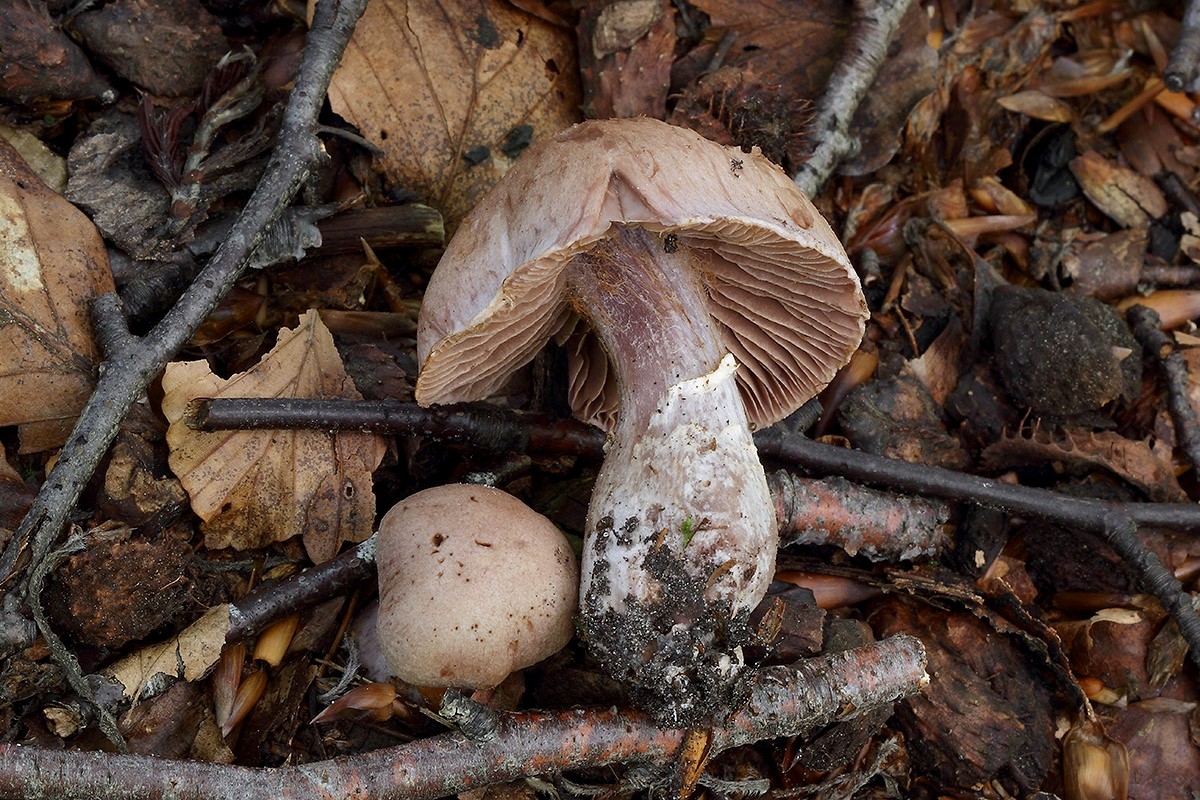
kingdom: Fungi
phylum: Basidiomycota
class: Agaricomycetes
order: Agaricales
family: Cortinariaceae
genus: Cortinarius
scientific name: Cortinarius torvus
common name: champignonagtig slørhat
